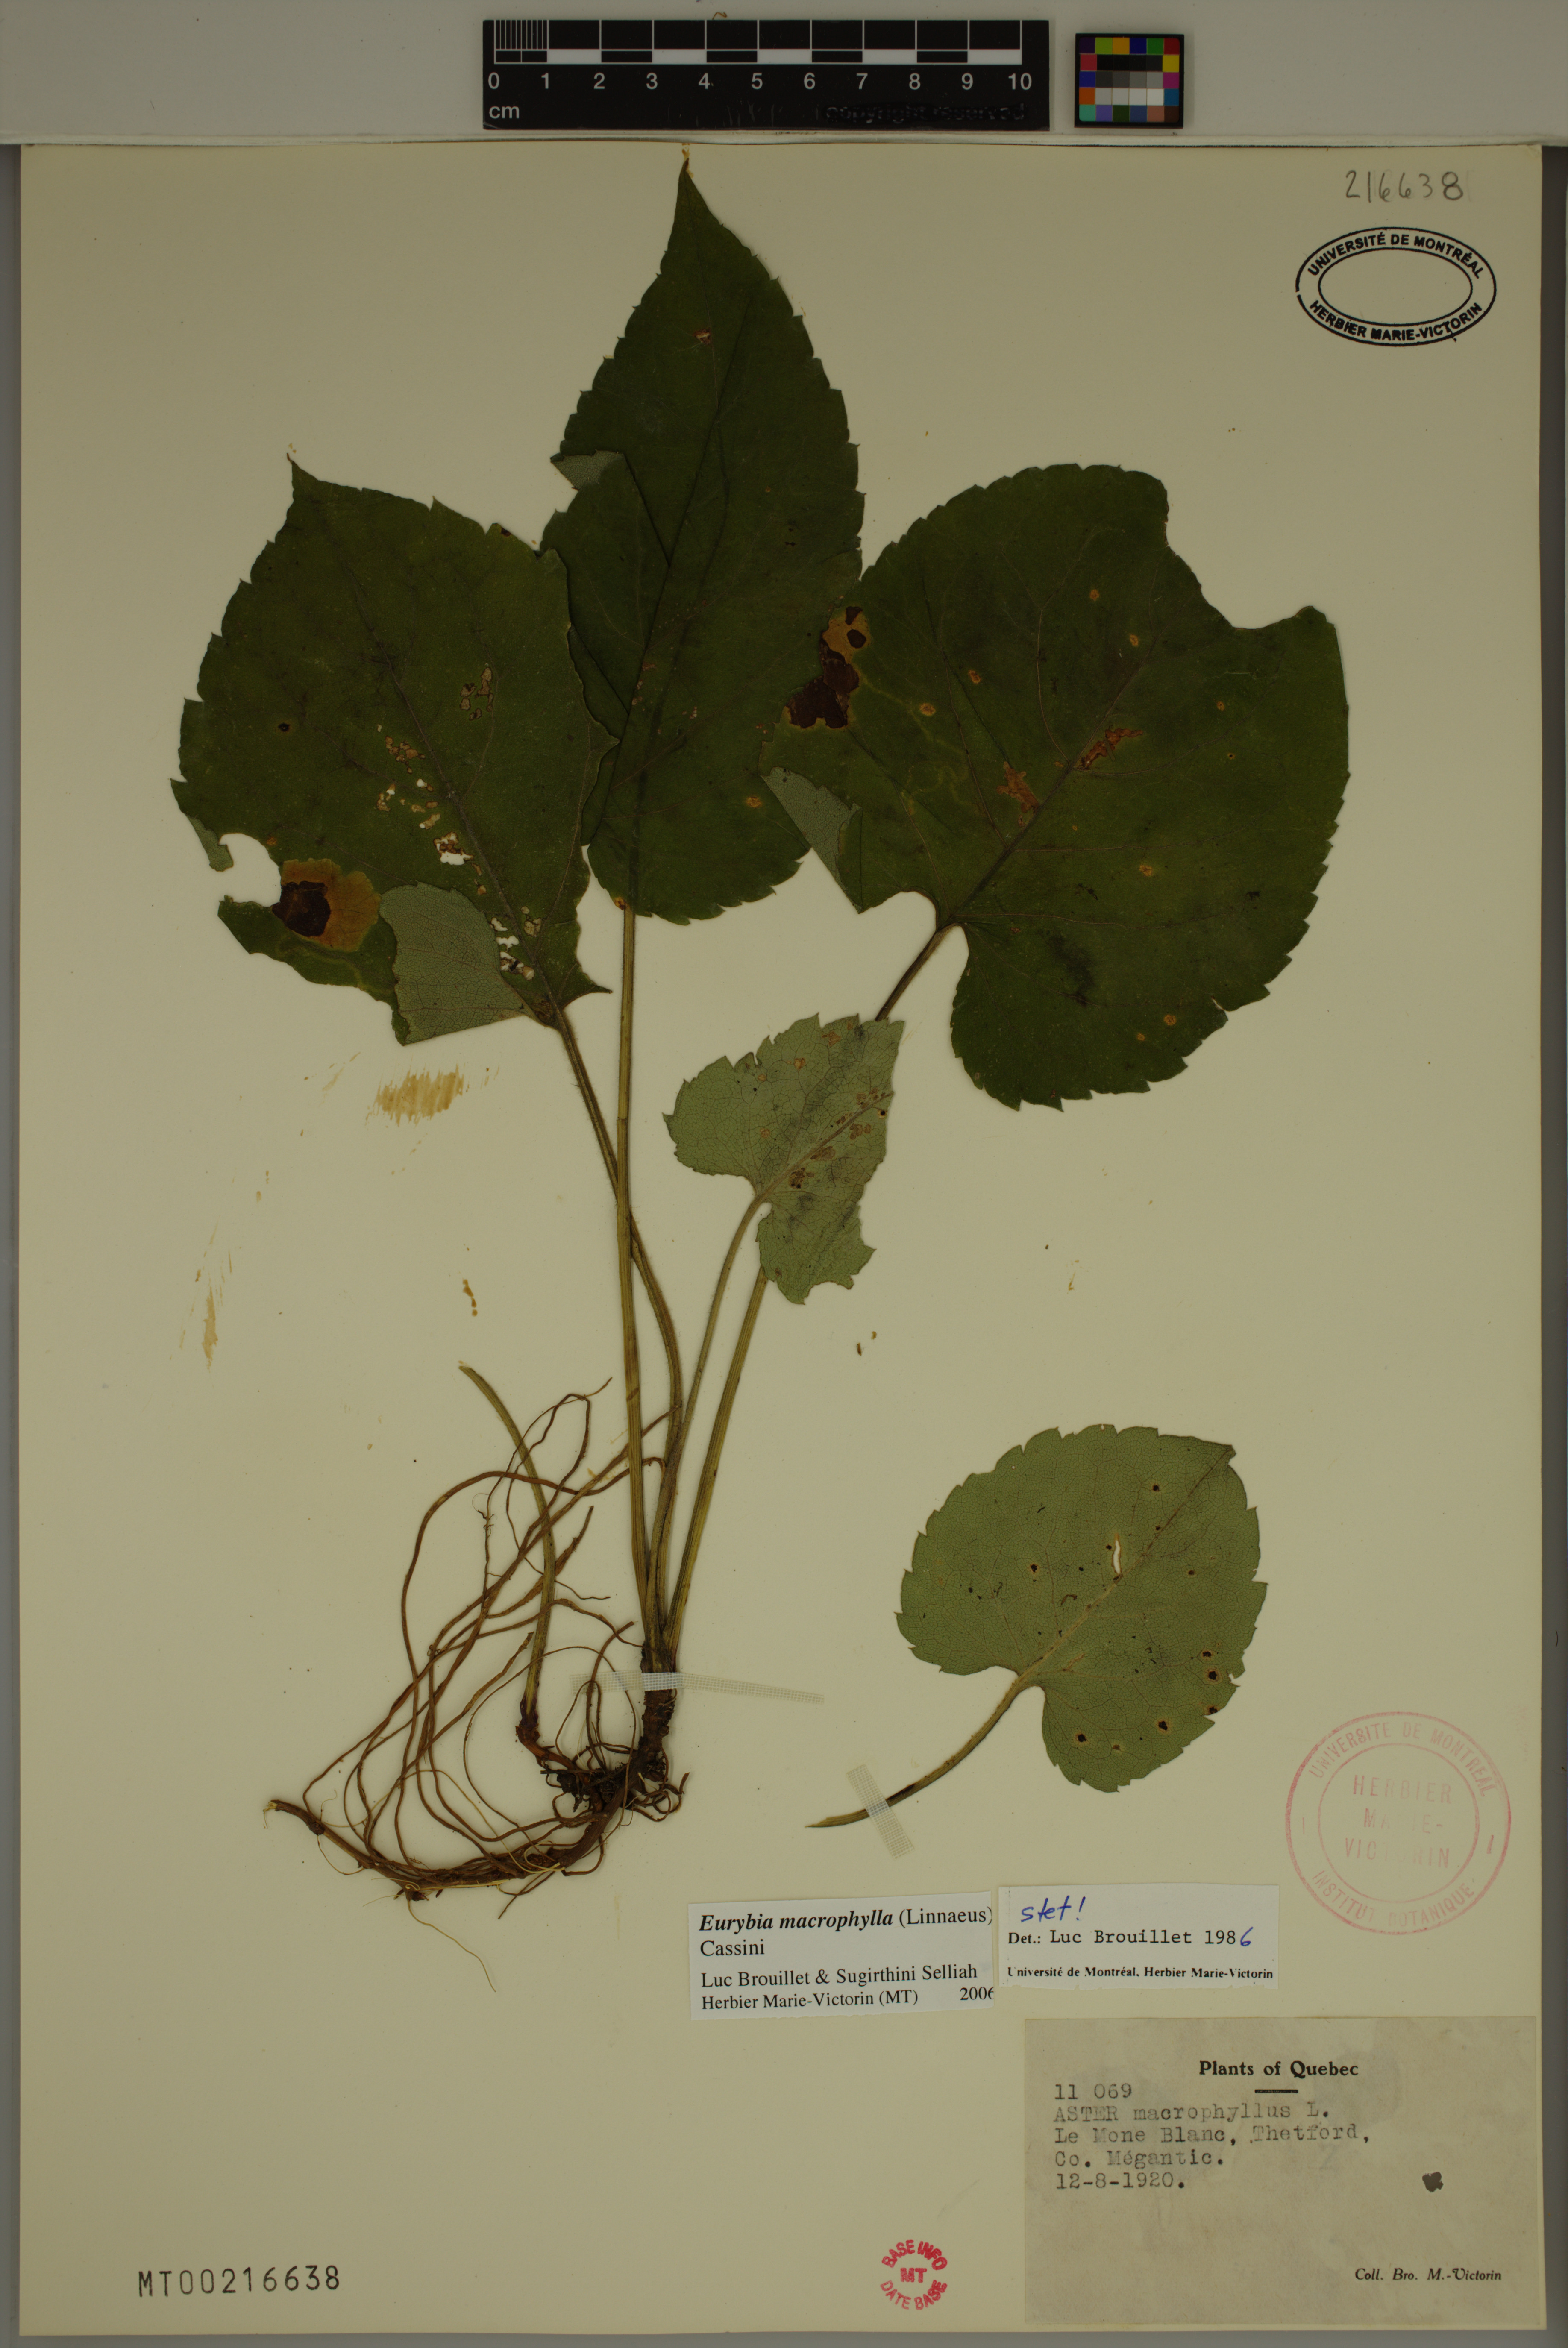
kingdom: Plantae
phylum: Tracheophyta
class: Magnoliopsida
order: Asterales
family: Asteraceae
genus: Eurybia
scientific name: Eurybia macrophylla
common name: Big-leaved aster
